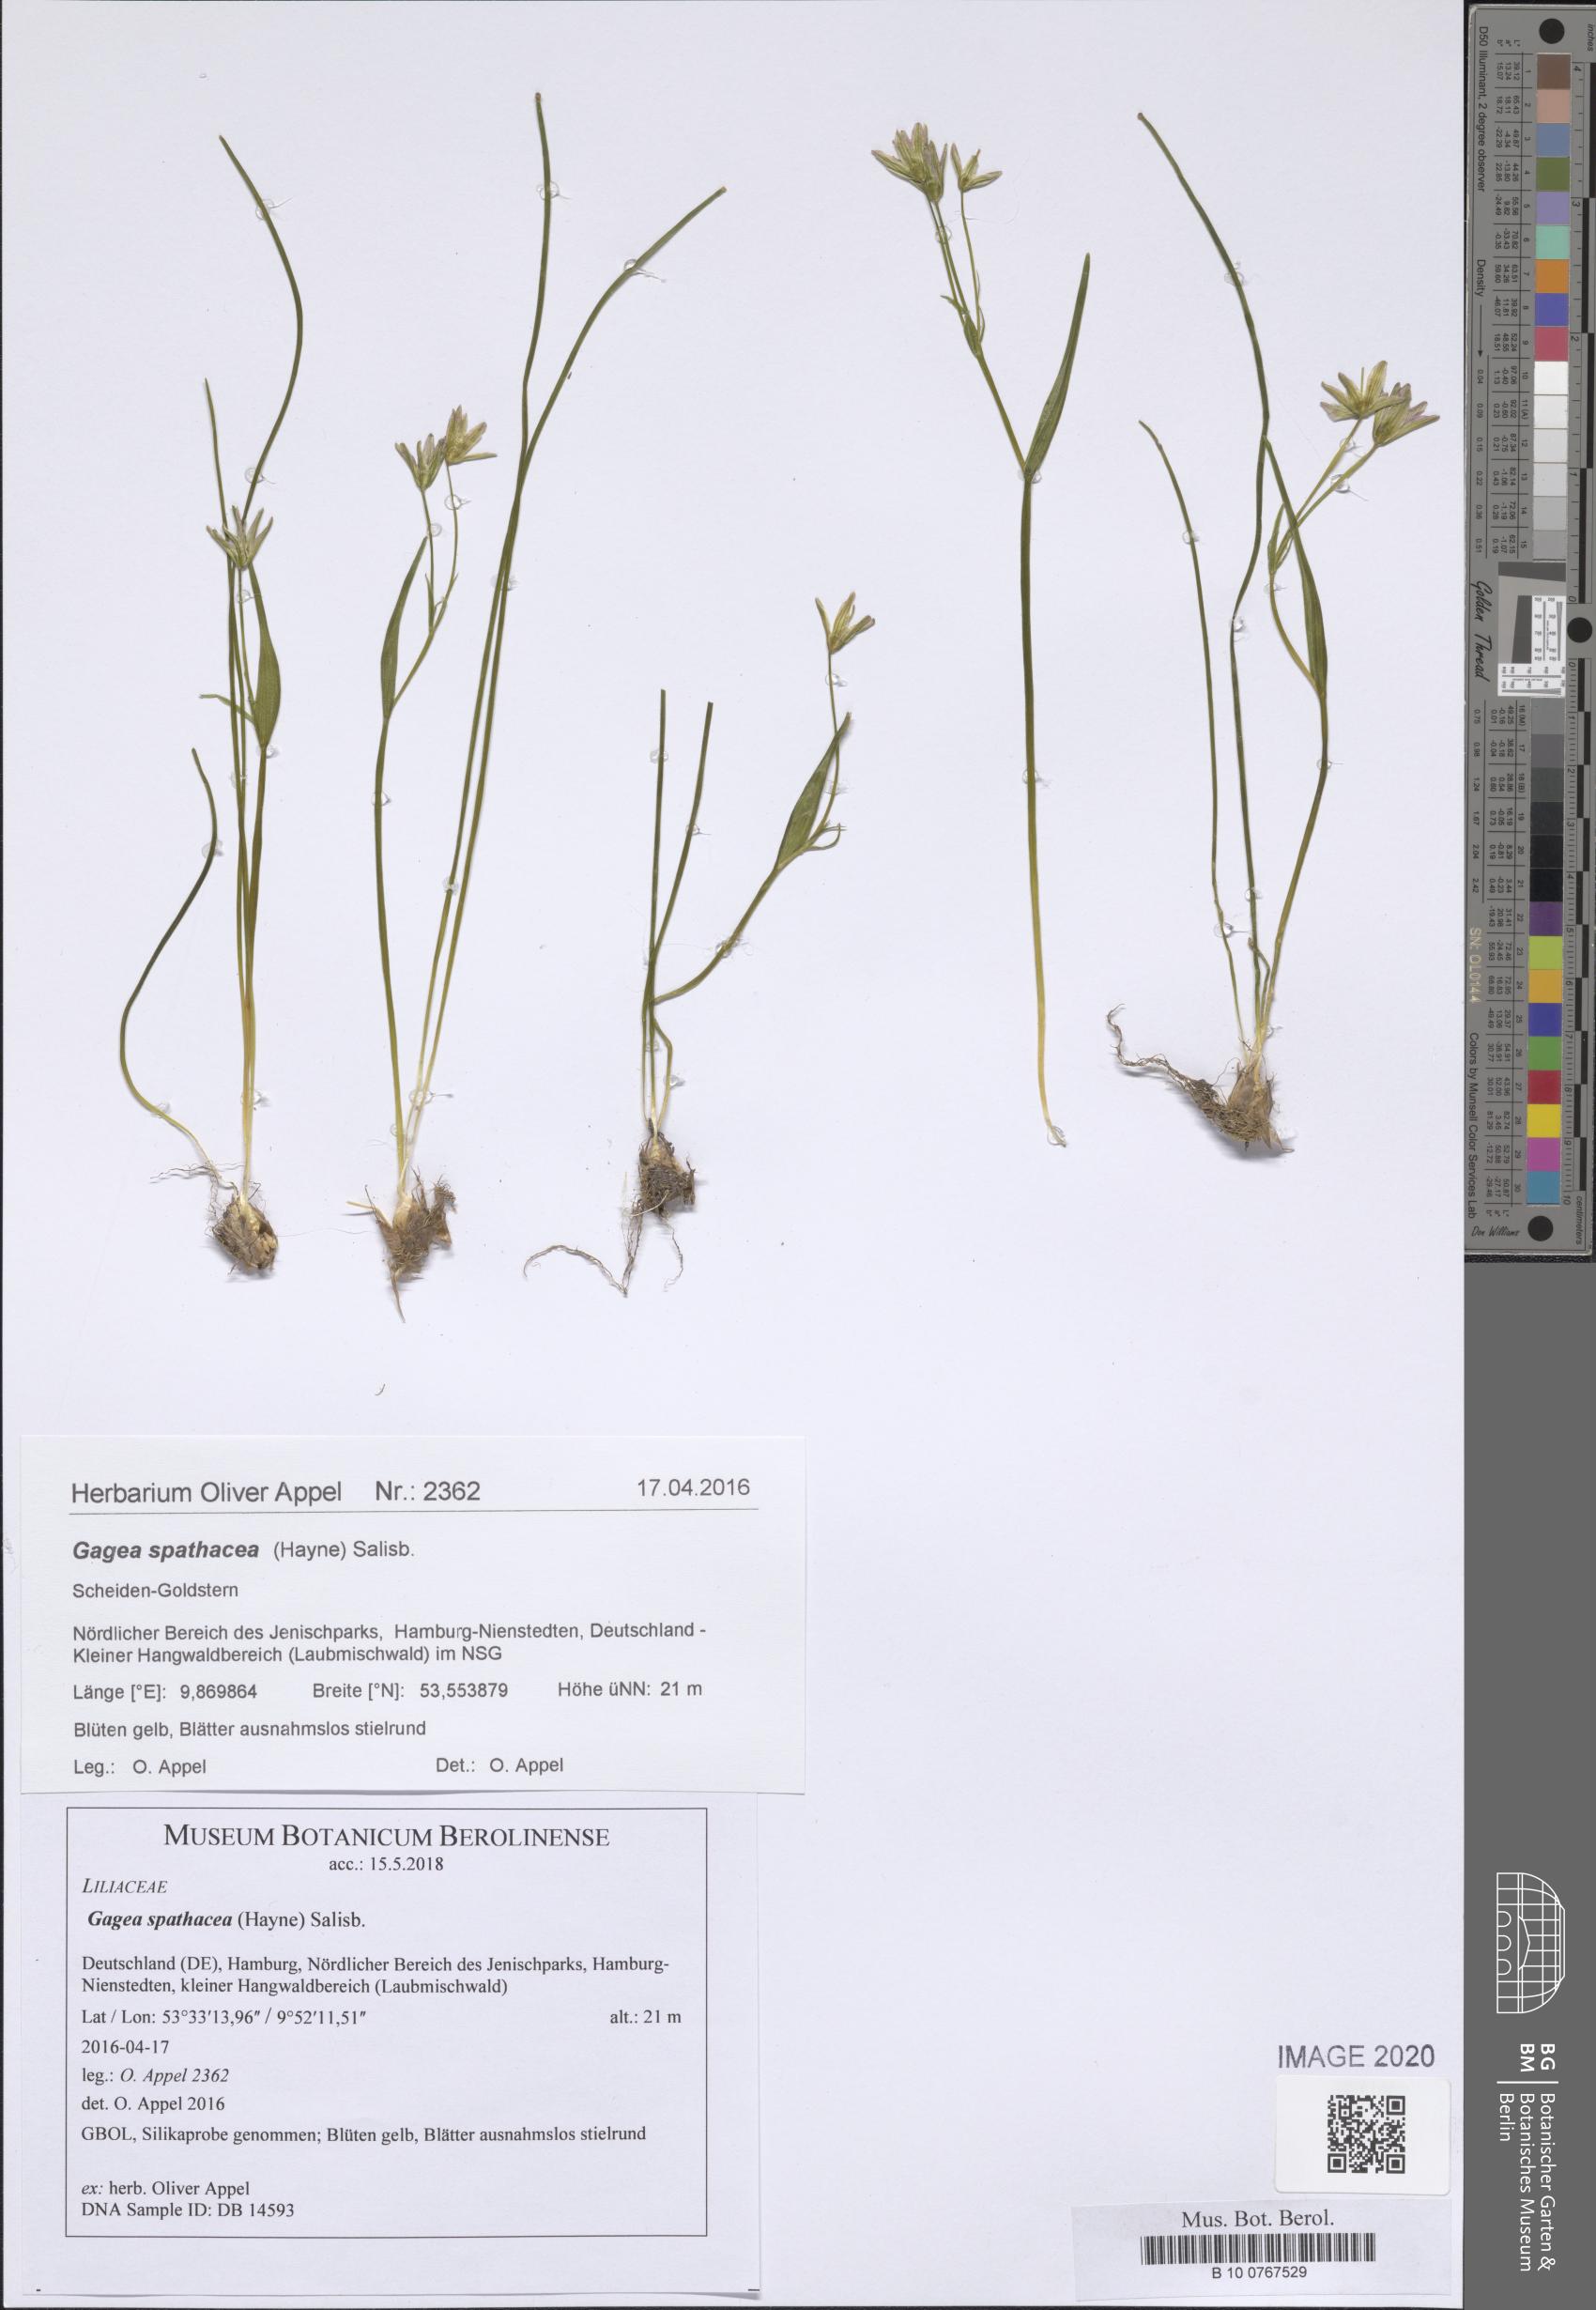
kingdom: Plantae
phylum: Tracheophyta
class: Liliopsida
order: Liliales
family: Liliaceae
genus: Gagea
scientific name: Gagea spathacea
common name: Belgian gagea
